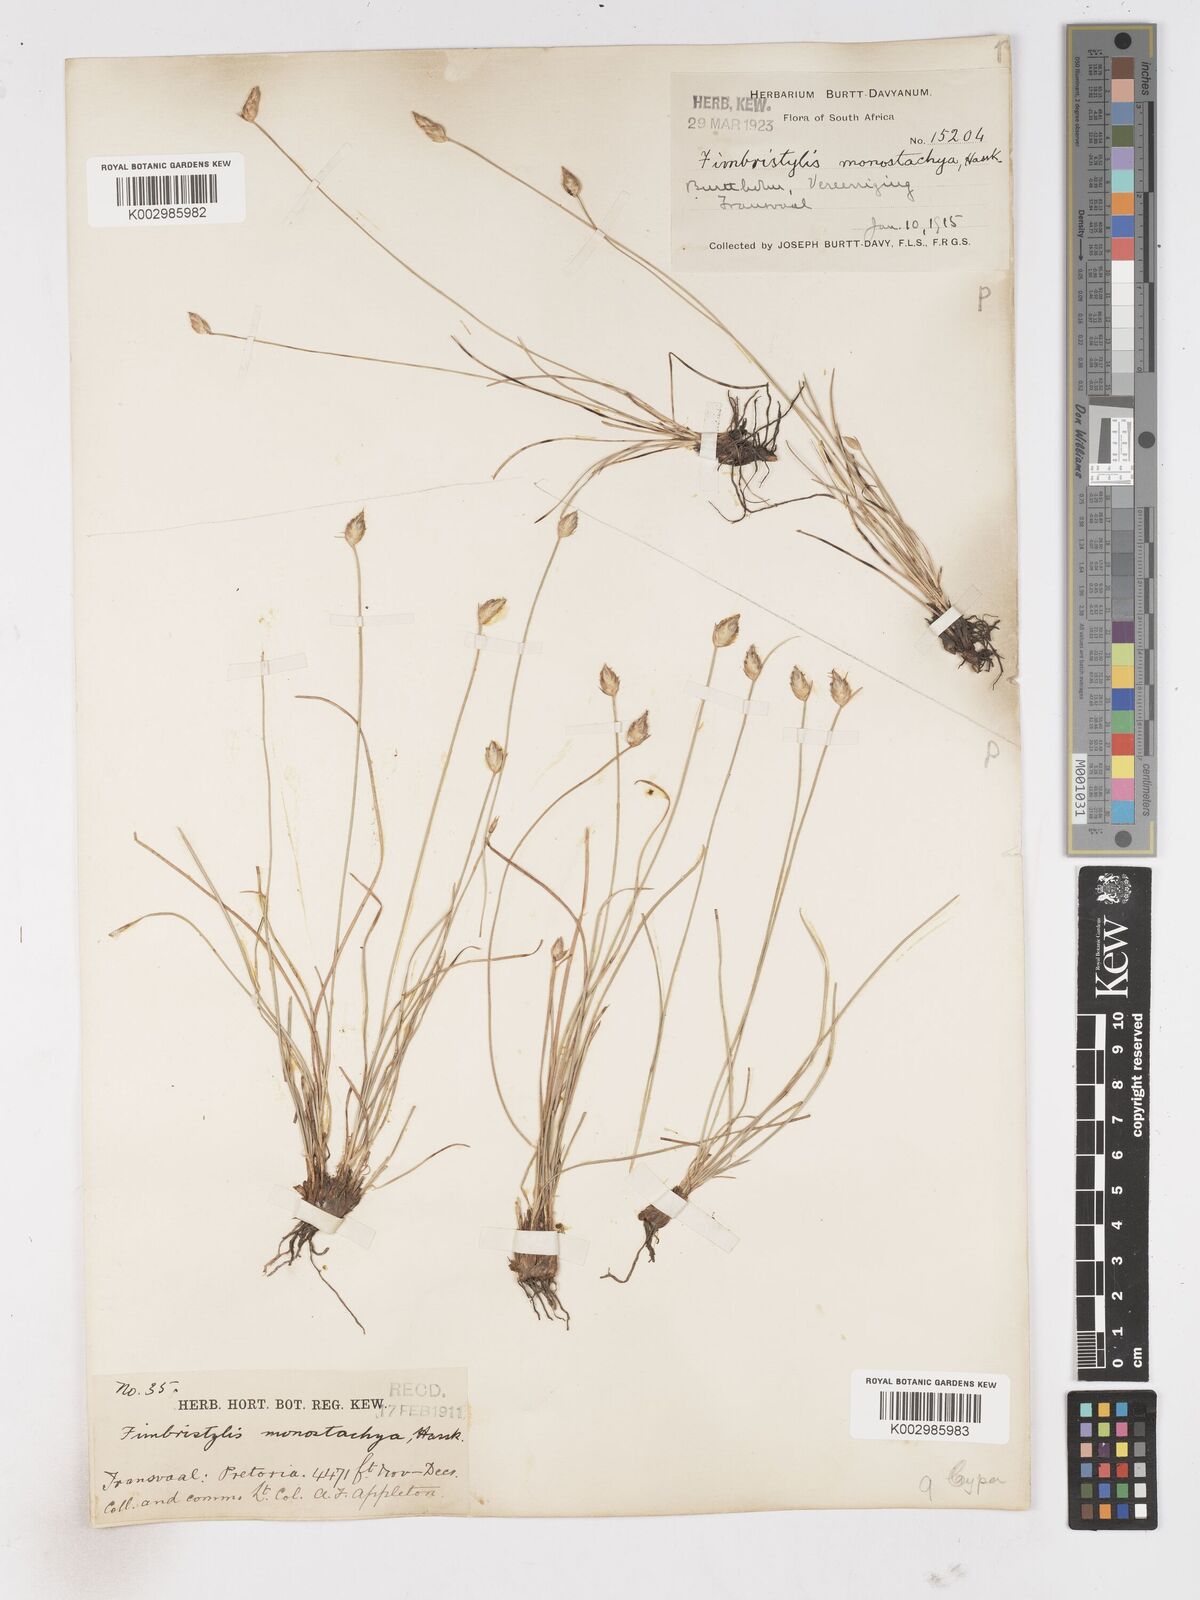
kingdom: Plantae
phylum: Tracheophyta
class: Liliopsida
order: Poales
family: Cyperaceae
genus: Abildgaardia
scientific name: Abildgaardia ovata
